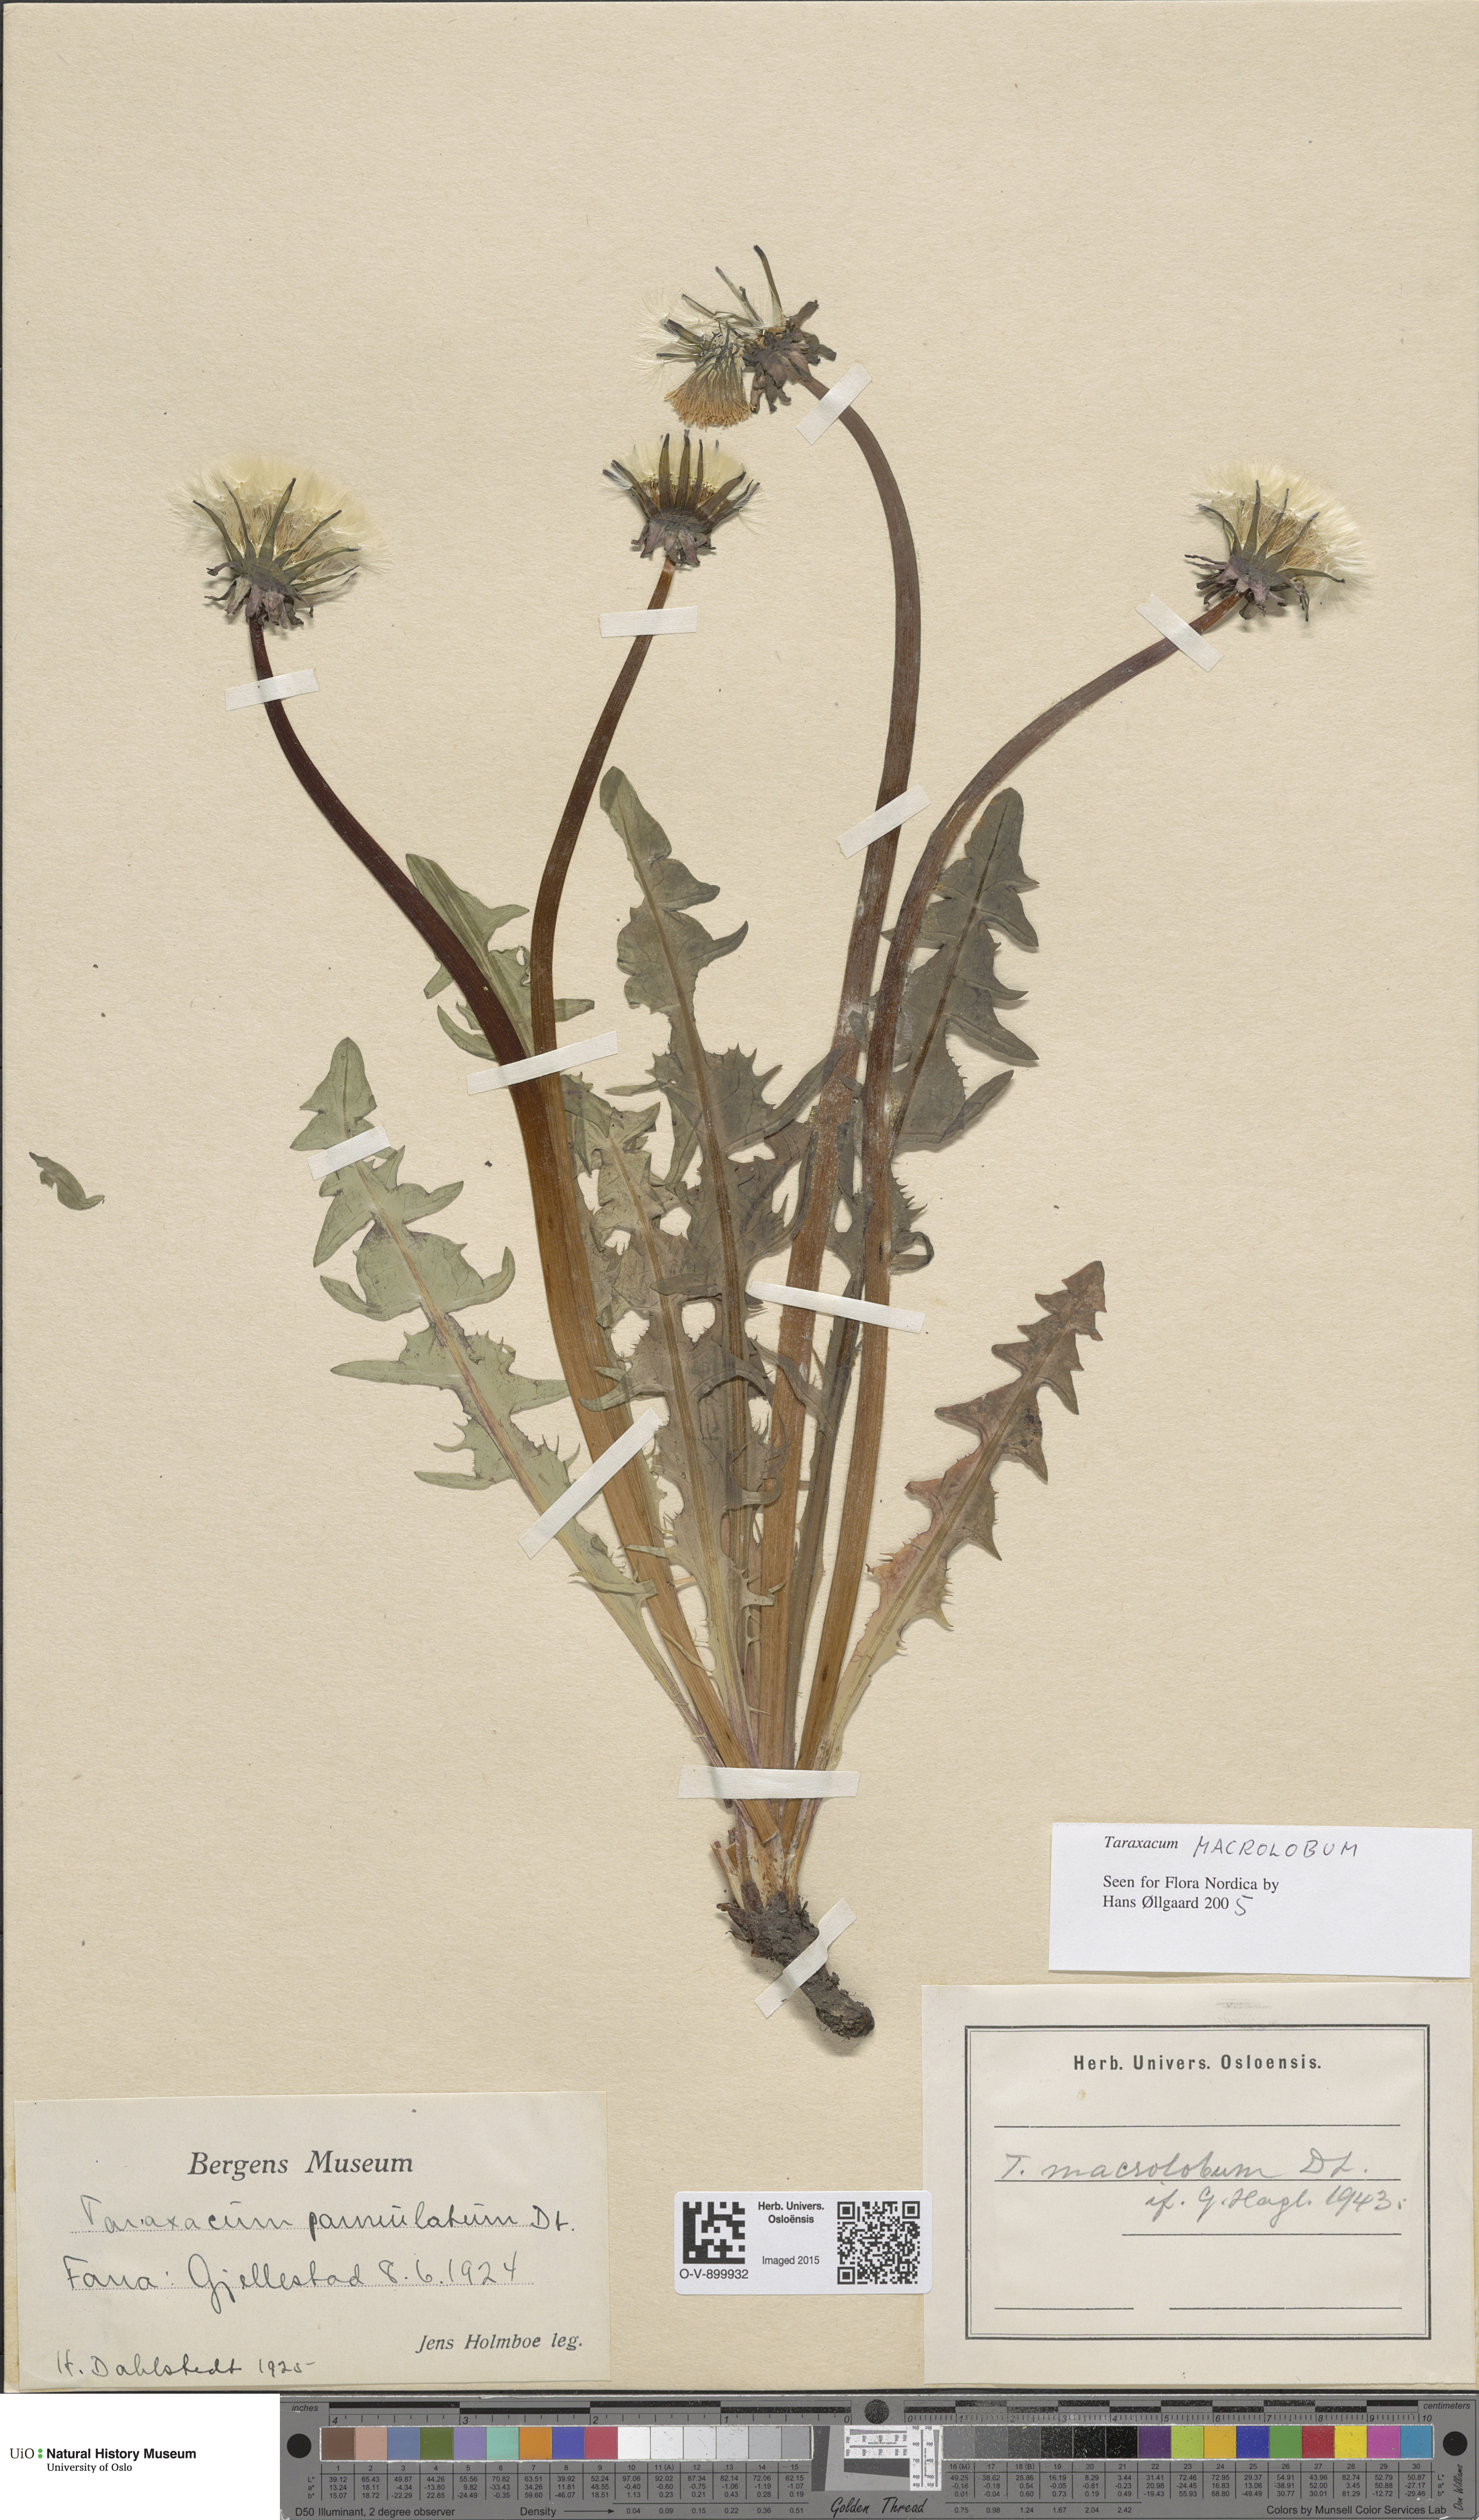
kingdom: Plantae
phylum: Tracheophyta
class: Magnoliopsida
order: Asterales
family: Asteraceae
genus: Taraxacum
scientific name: Taraxacum macrolobum
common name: Incise-lobed dandelion
